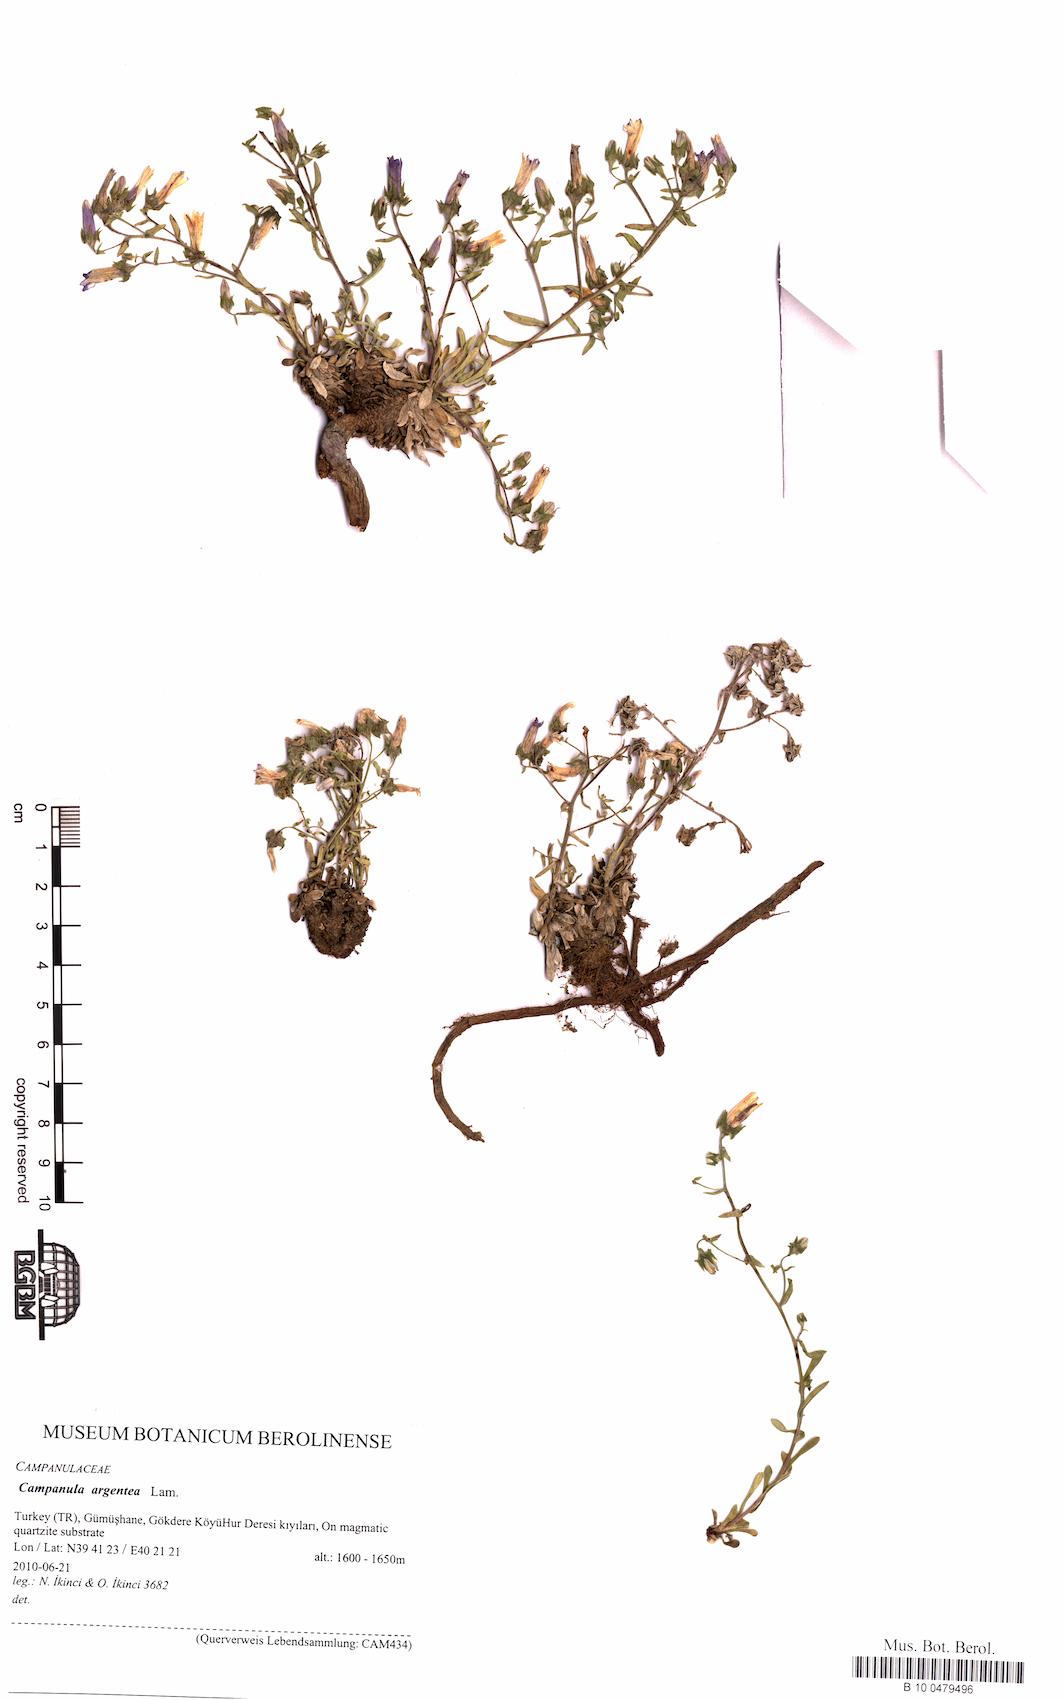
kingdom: Plantae
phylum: Tracheophyta
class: Magnoliopsida
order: Asterales
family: Campanulaceae
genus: Campanula
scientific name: Campanula argentea
